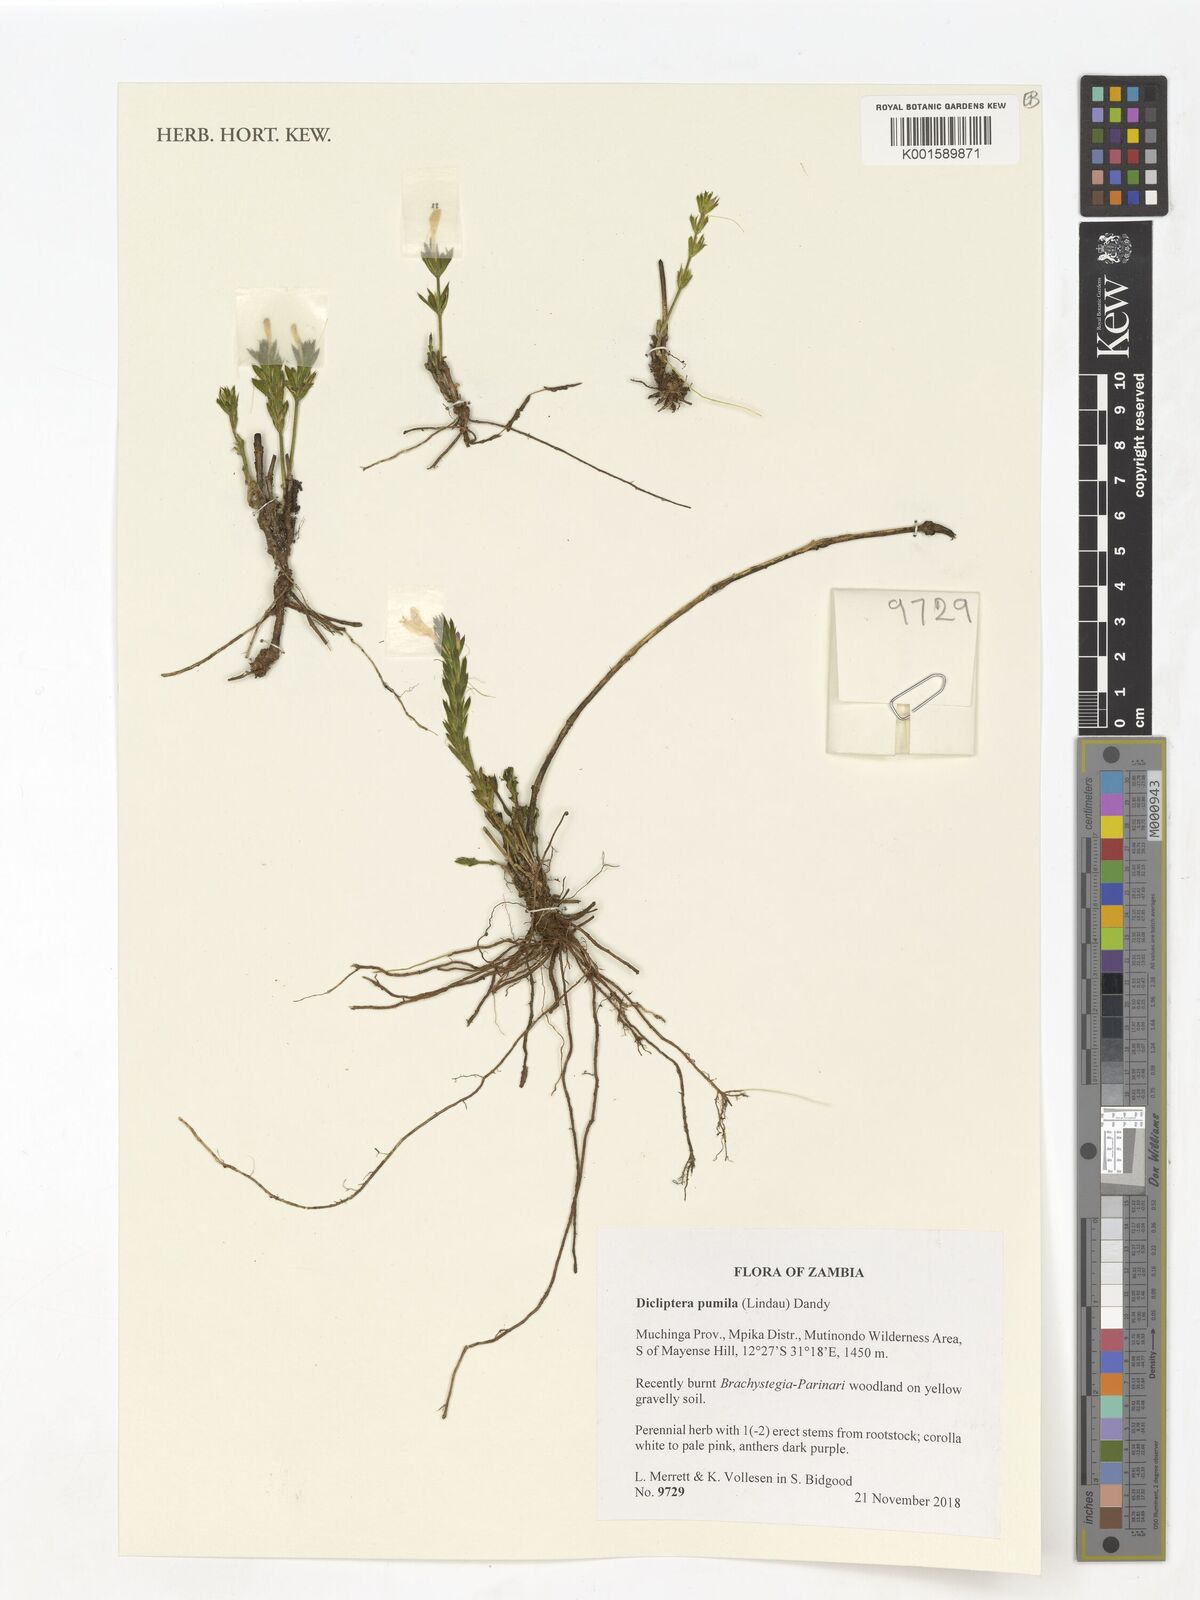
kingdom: Plantae
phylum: Tracheophyta
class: Magnoliopsida
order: Lamiales
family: Acanthaceae
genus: Dicliptera
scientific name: Dicliptera pumila
